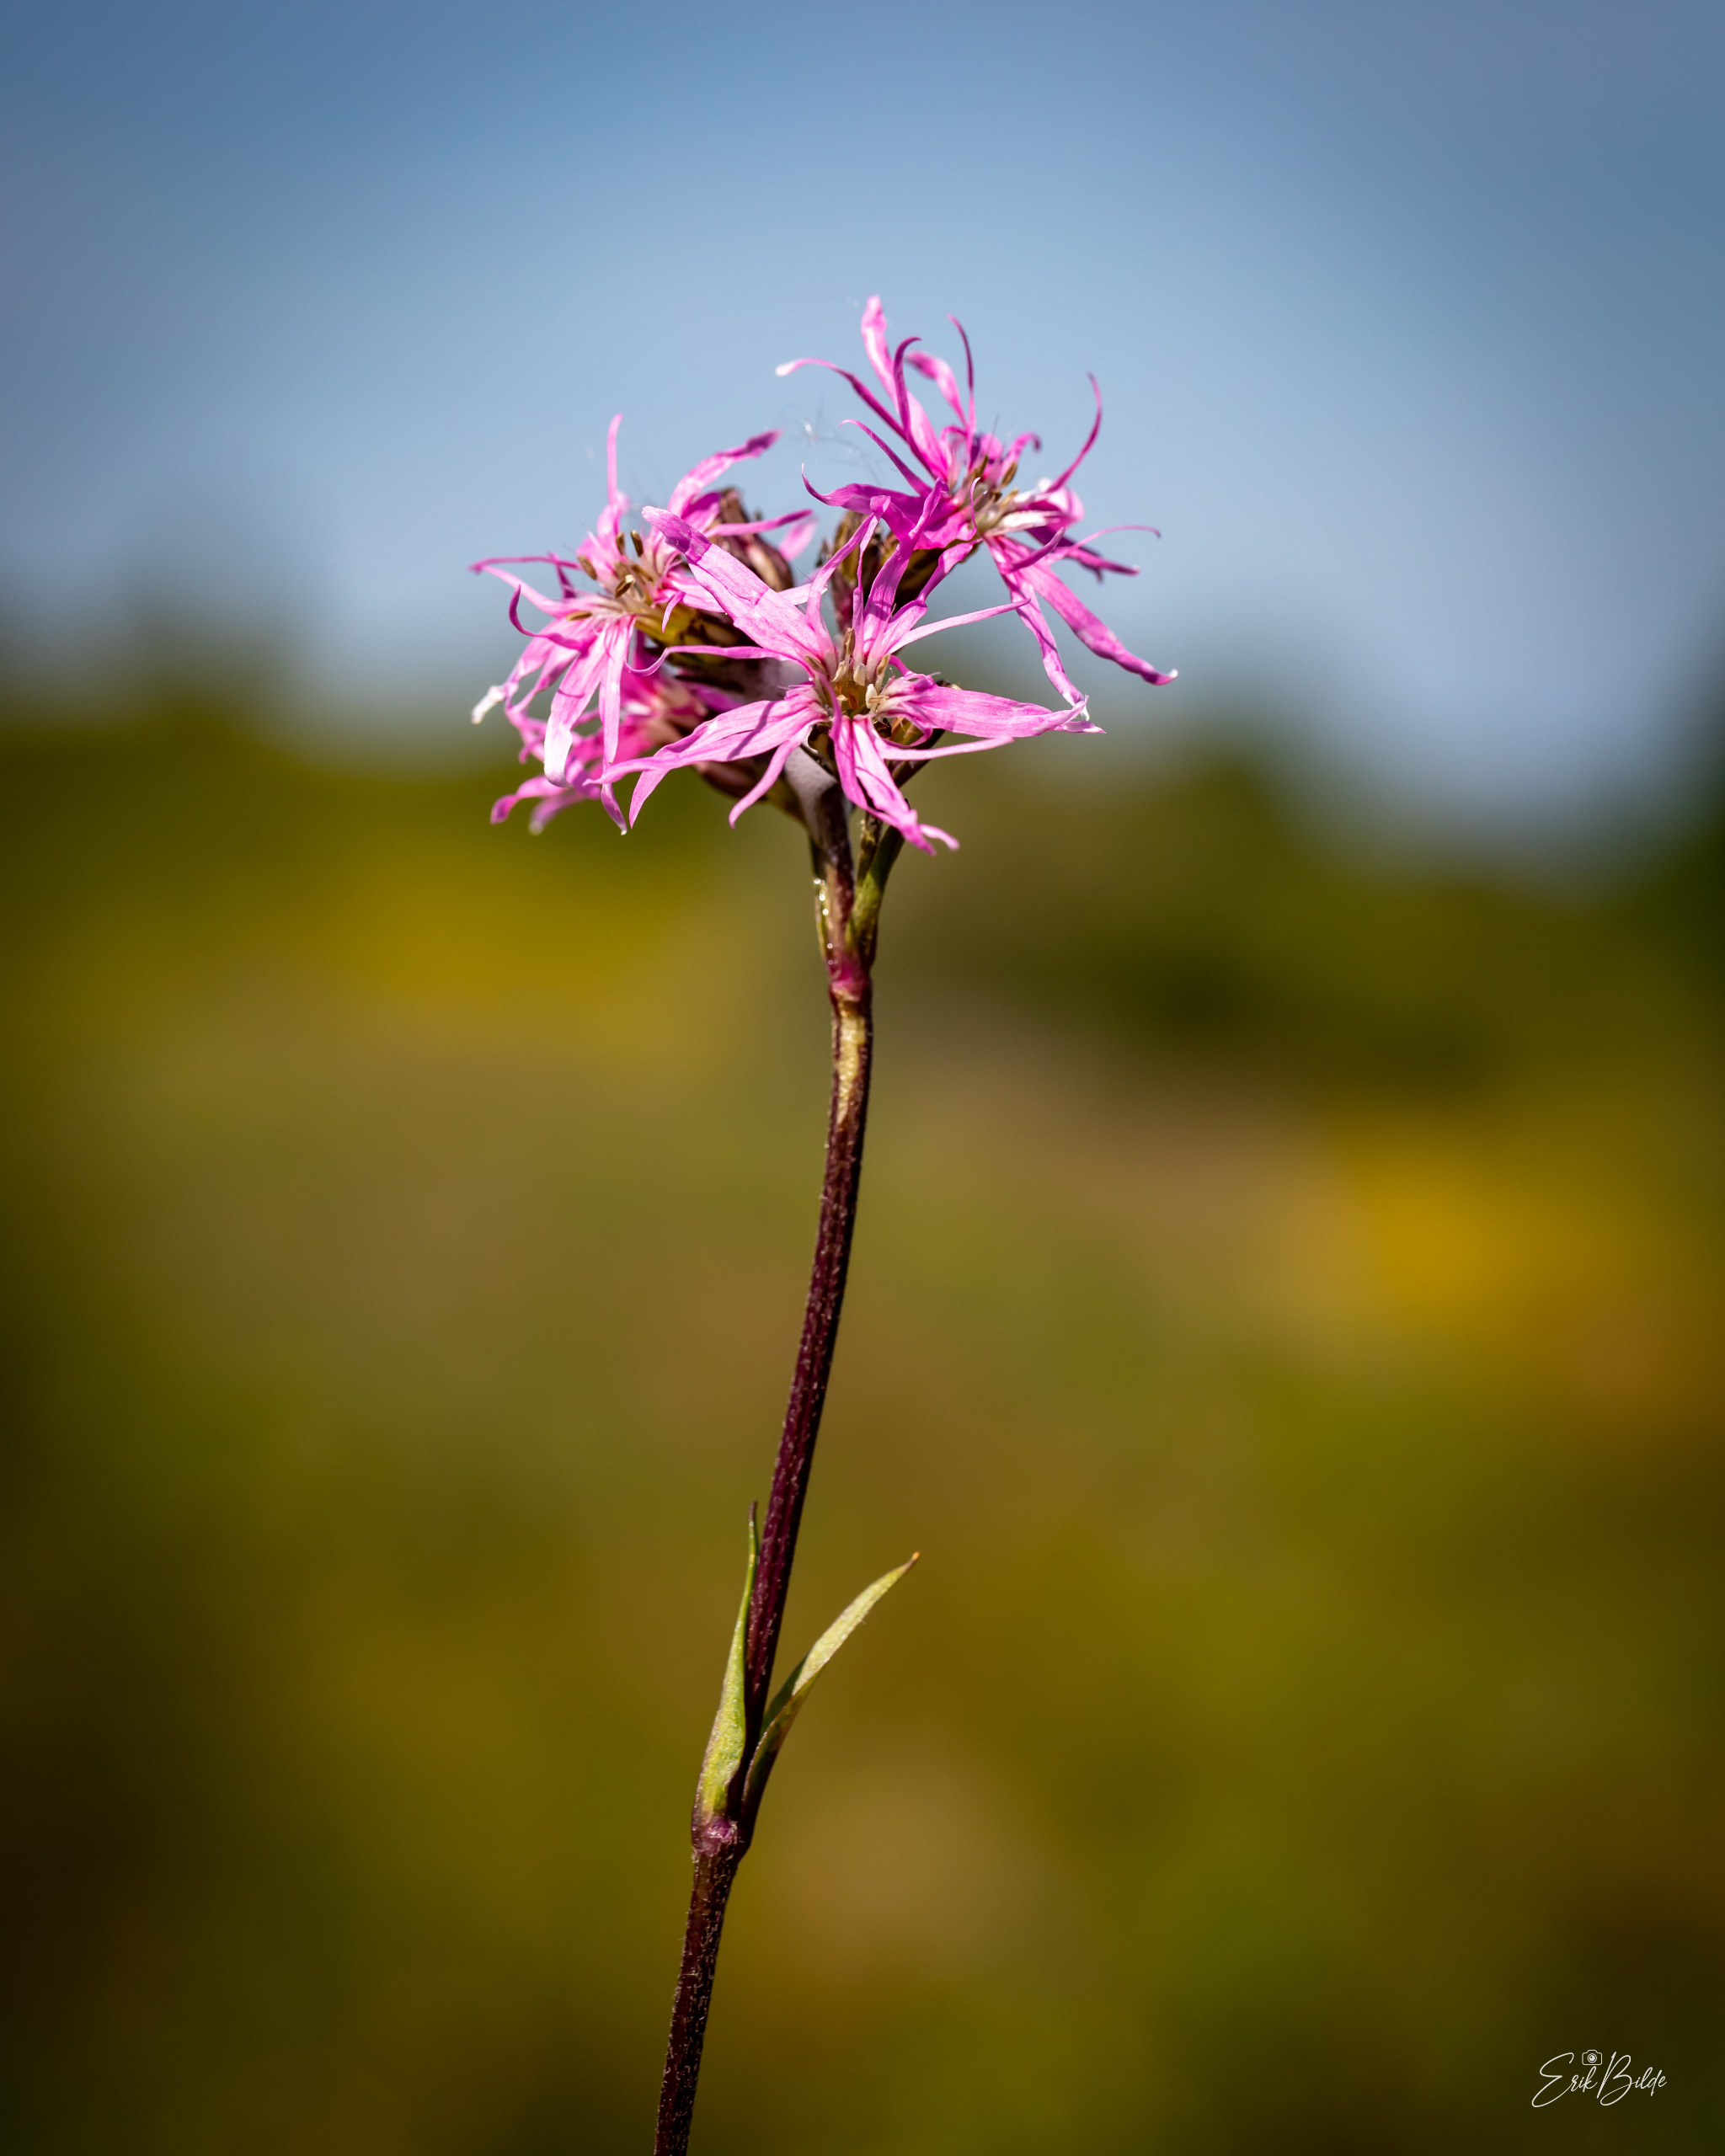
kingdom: Plantae
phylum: Tracheophyta
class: Magnoliopsida
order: Caryophyllales
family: Caryophyllaceae
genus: Silene
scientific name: Silene flos-cuculi
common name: Trævlekrone
